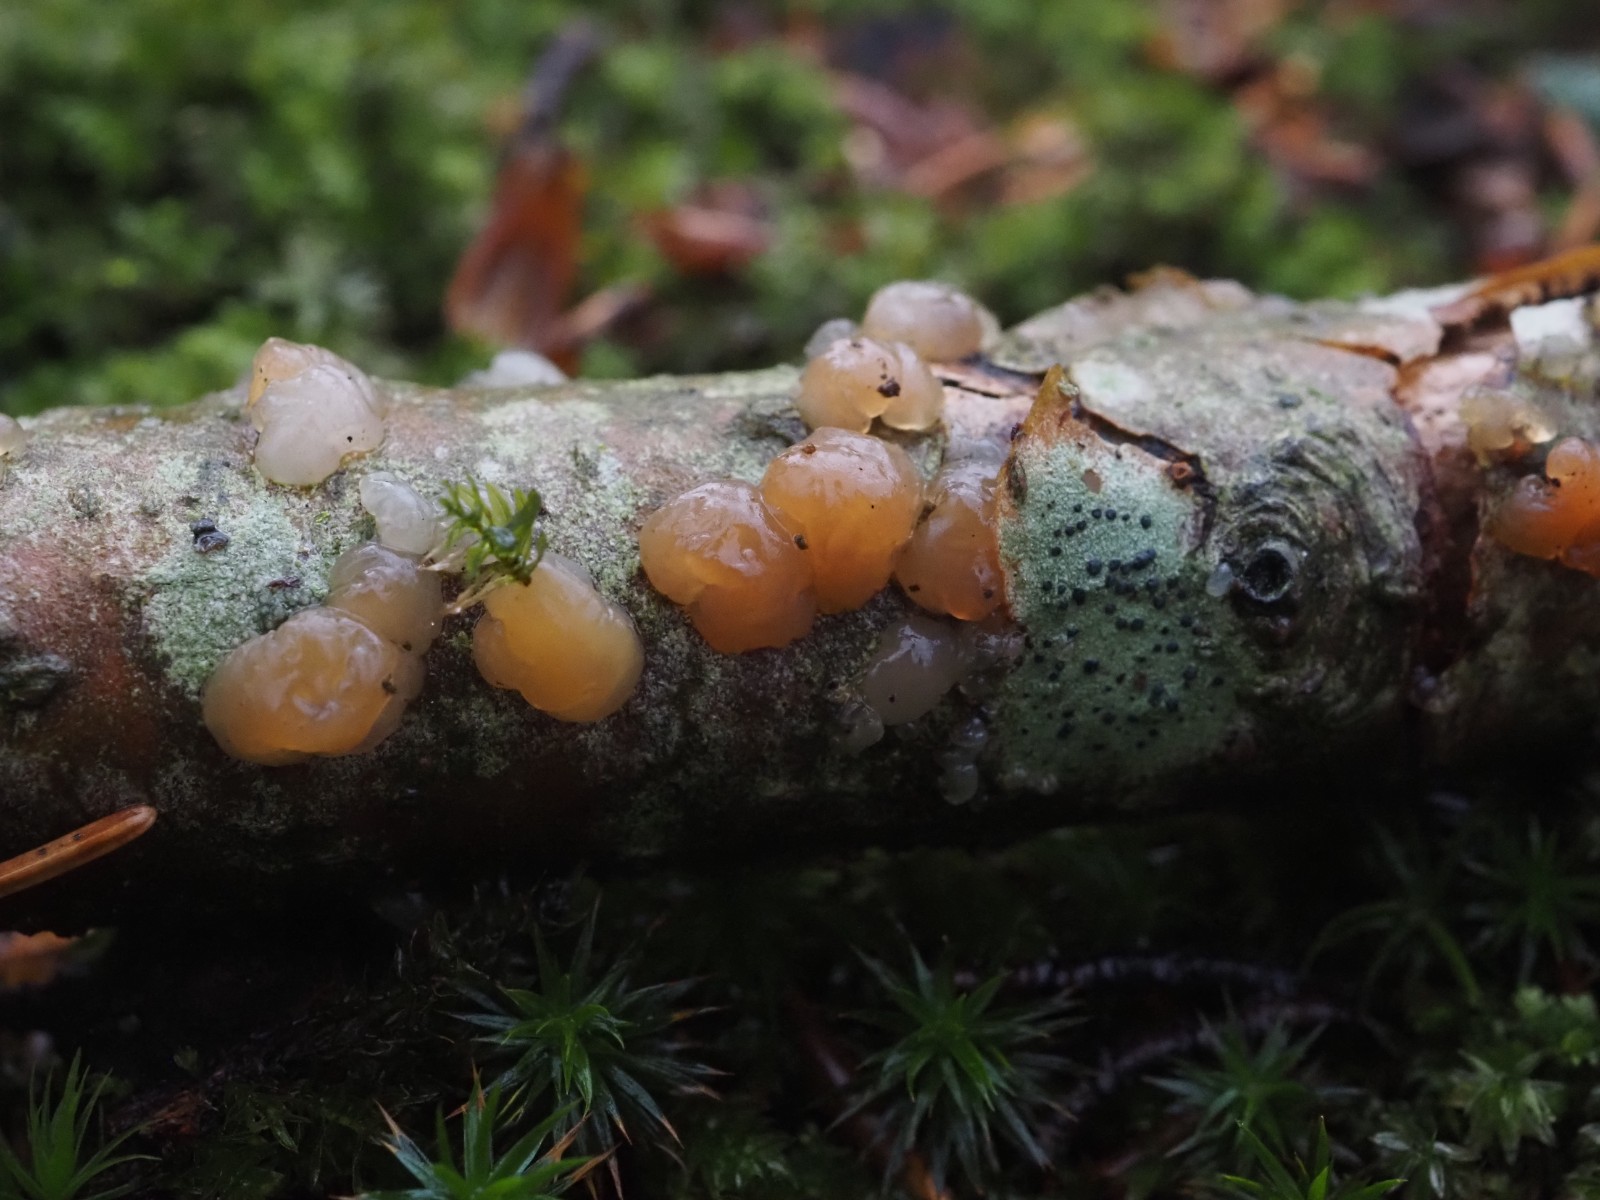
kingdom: Fungi
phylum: Basidiomycota
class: Agaricomycetes
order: Auriculariales
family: Hyaloriaceae
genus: Myxarium
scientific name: Myxarium hyalinum
